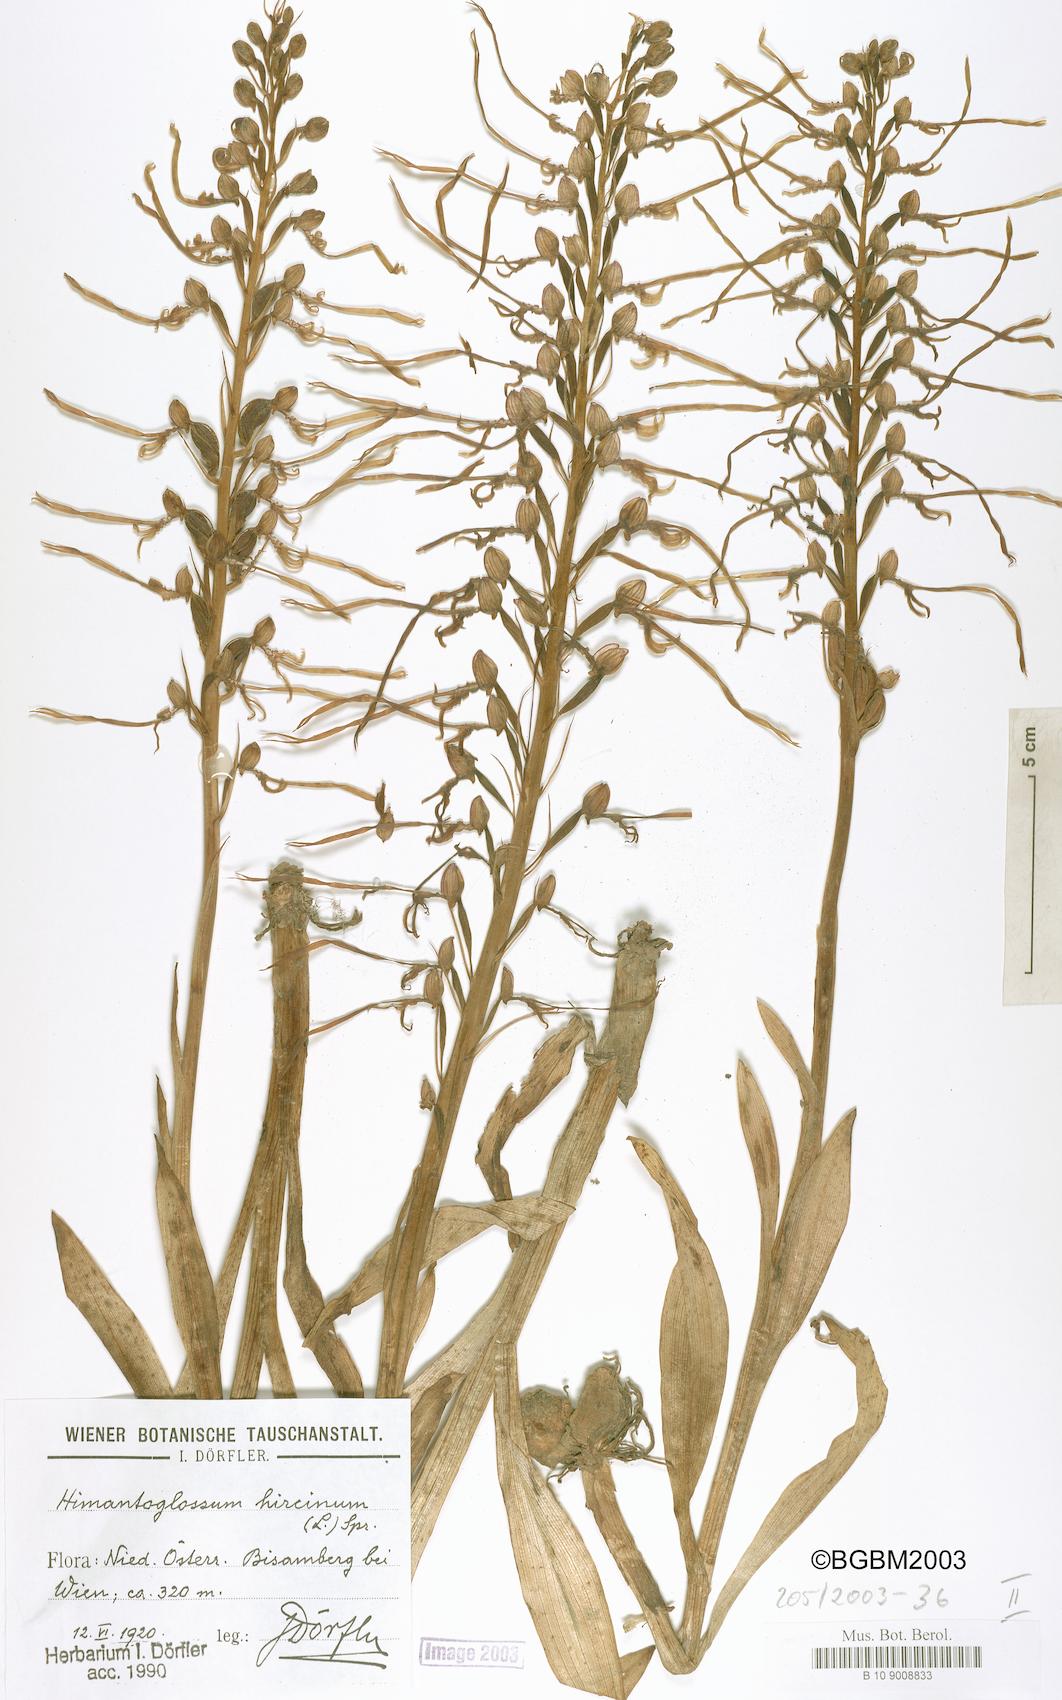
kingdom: Plantae
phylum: Tracheophyta
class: Liliopsida
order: Asparagales
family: Orchidaceae
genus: Himantoglossum
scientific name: Himantoglossum hircinum
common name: Lizard orchid
